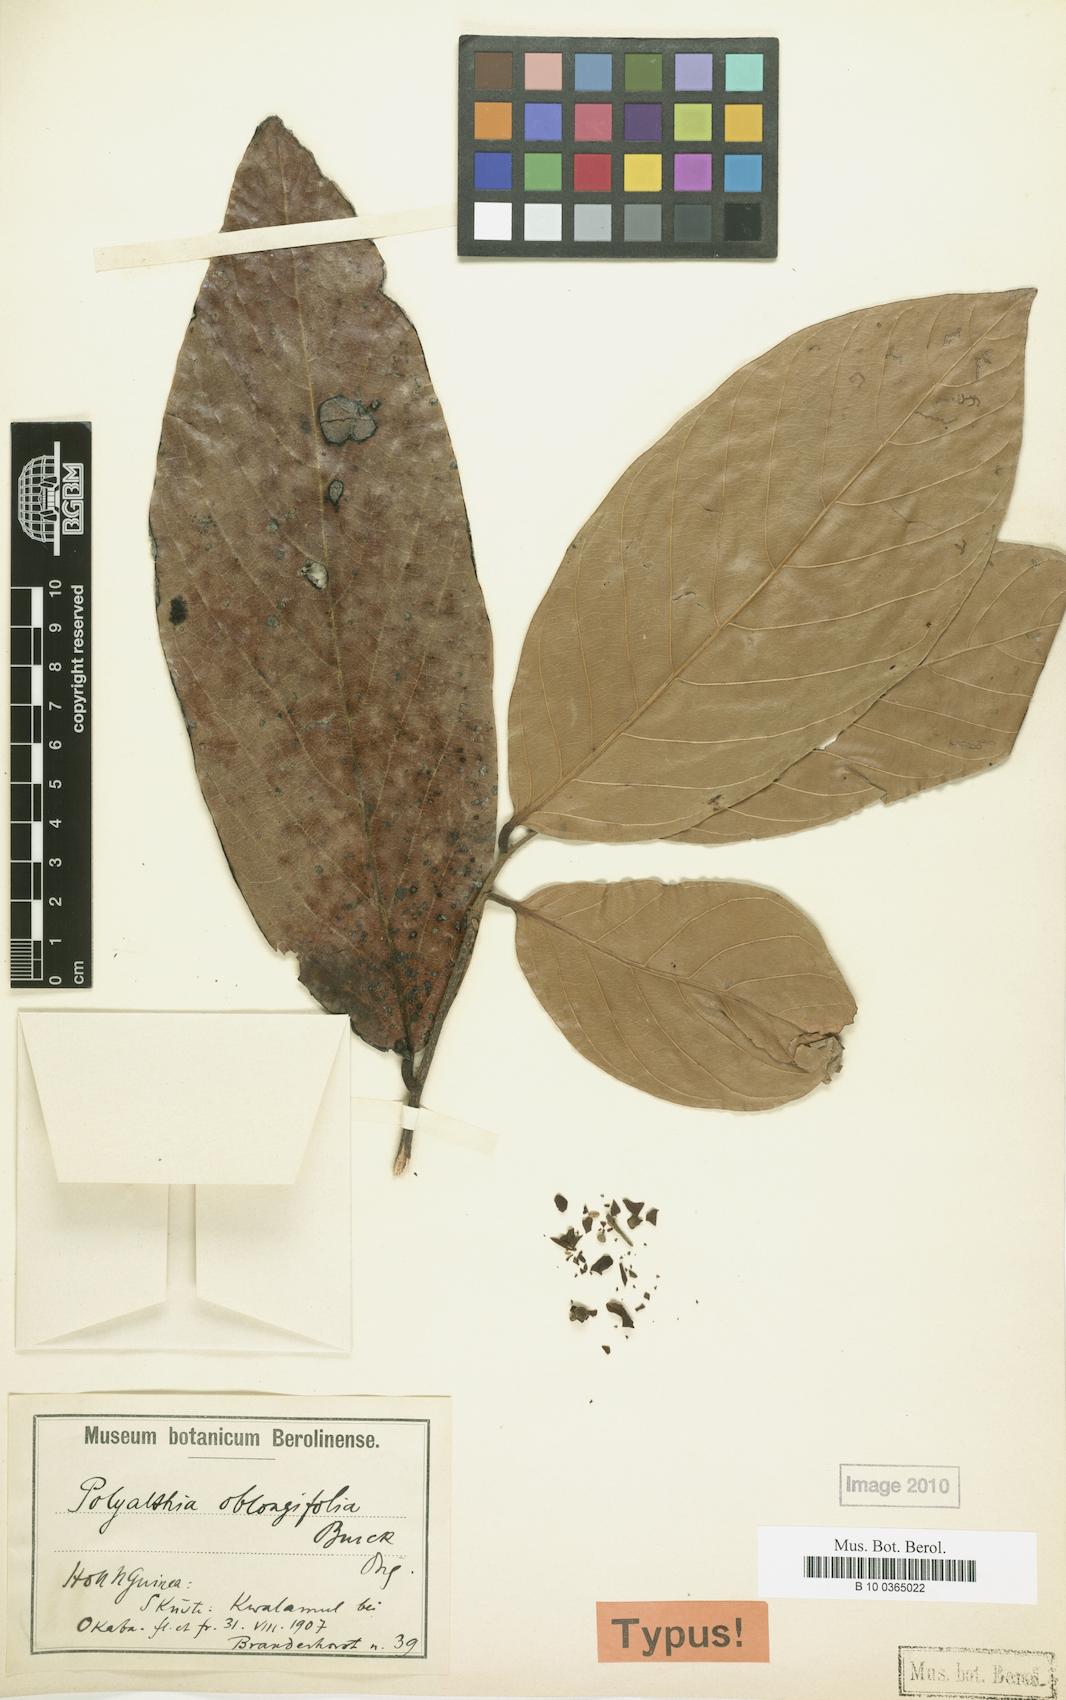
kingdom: Plantae
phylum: Tracheophyta
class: Magnoliopsida
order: Magnoliales
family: Annonaceae
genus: Polyalthia
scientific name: Polyalthia oblongifolia
